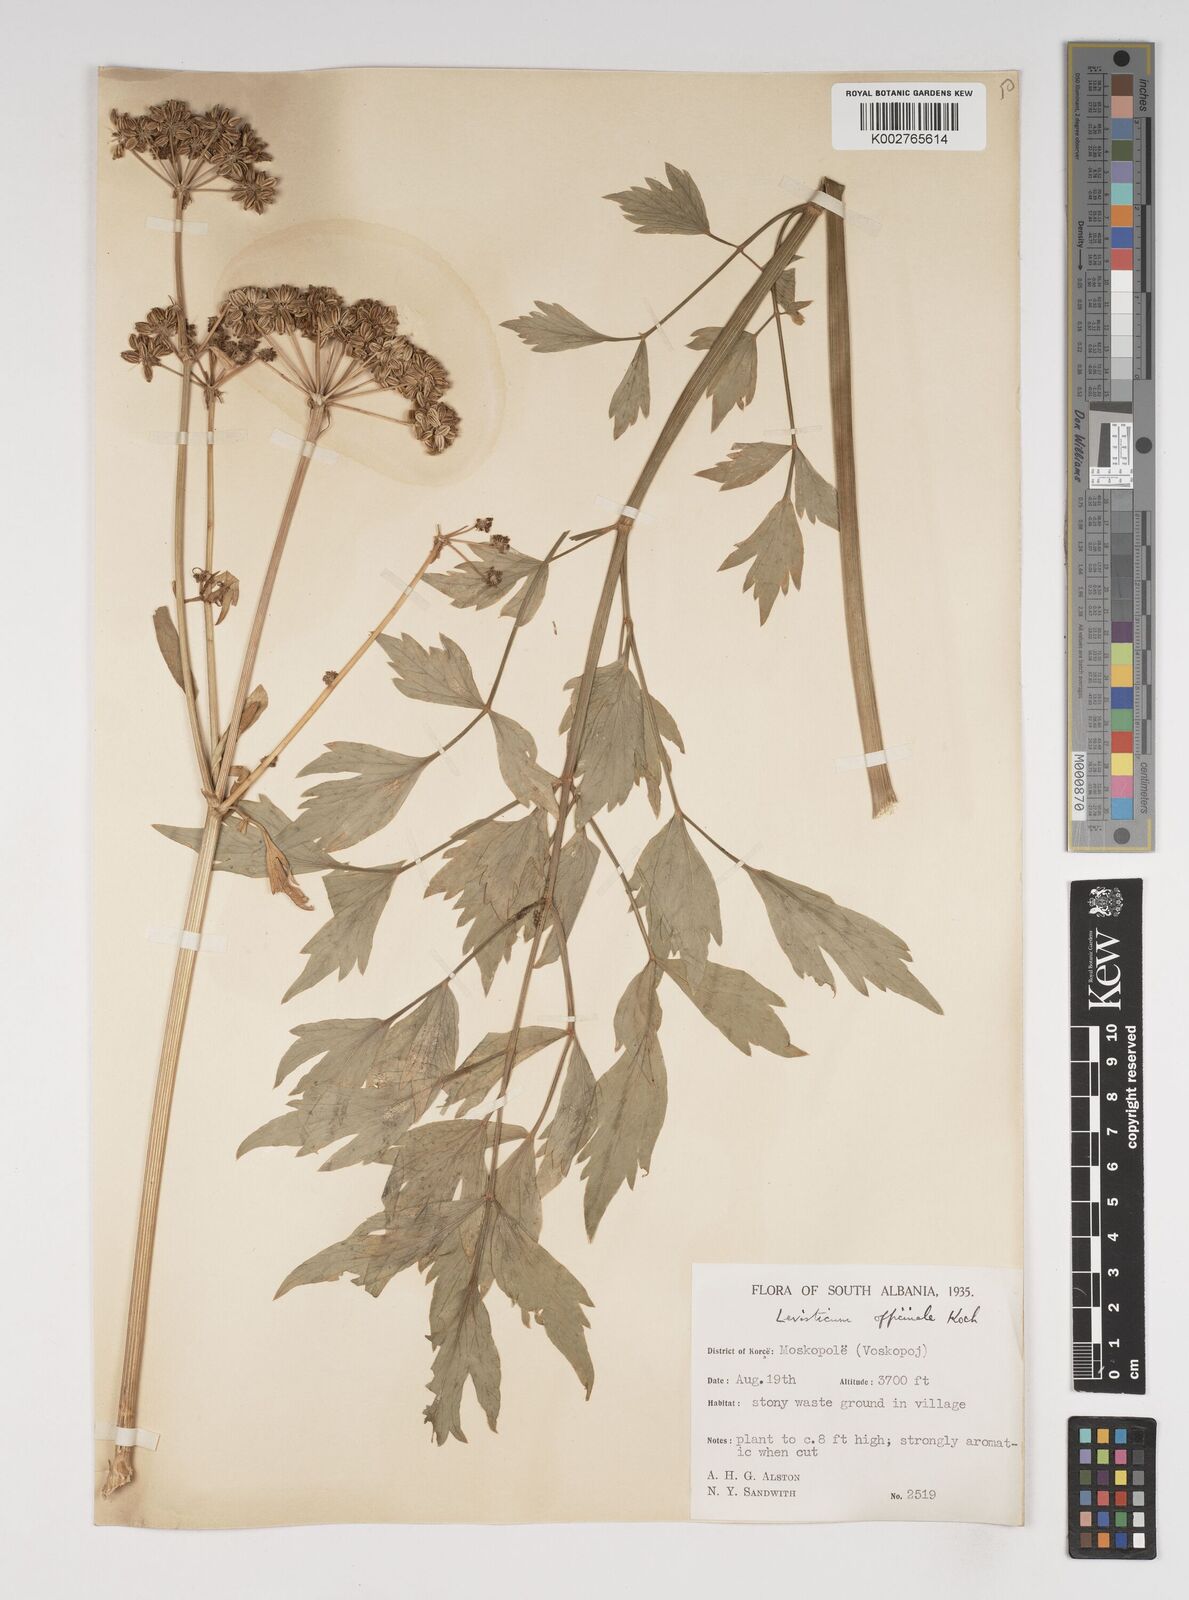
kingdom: Plantae
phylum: Tracheophyta
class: Magnoliopsida
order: Apiales
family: Apiaceae
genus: Levisticum
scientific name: Levisticum officinale
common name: Lovage
